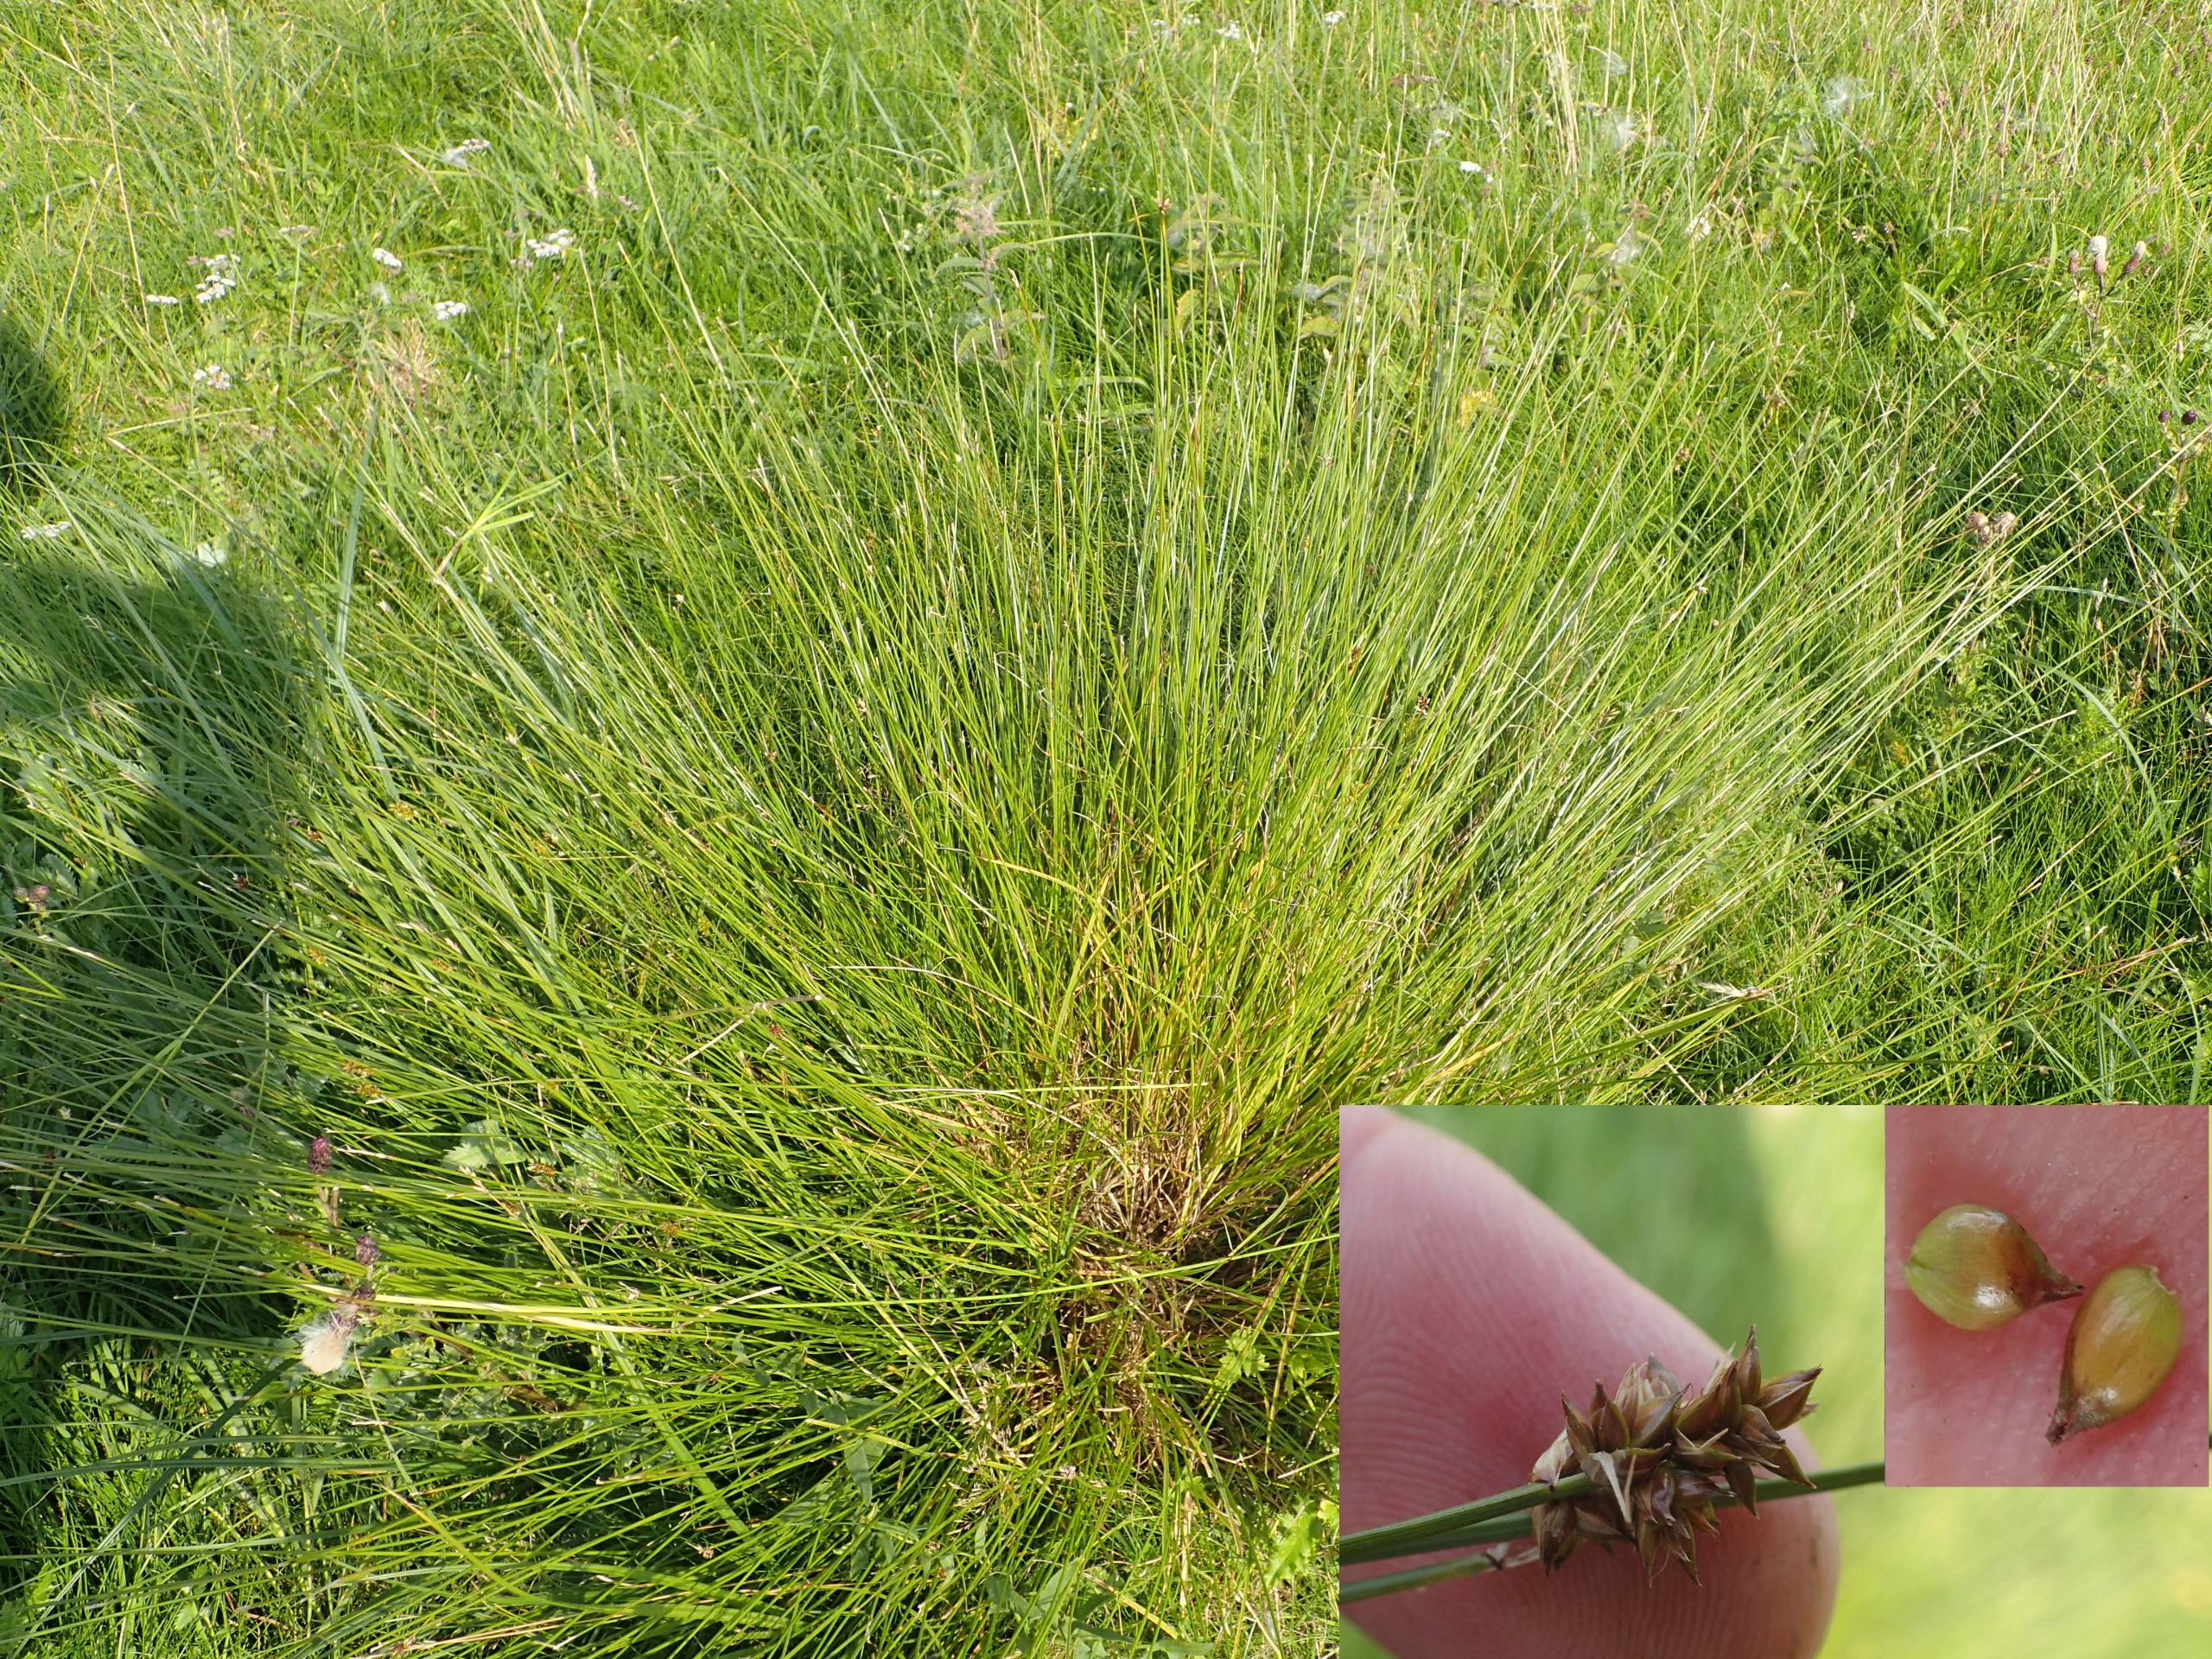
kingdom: Plantae
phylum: Tracheophyta
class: Liliopsida
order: Poales
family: Cyperaceae
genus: Carex
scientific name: Carex pairae
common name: Pigget star
